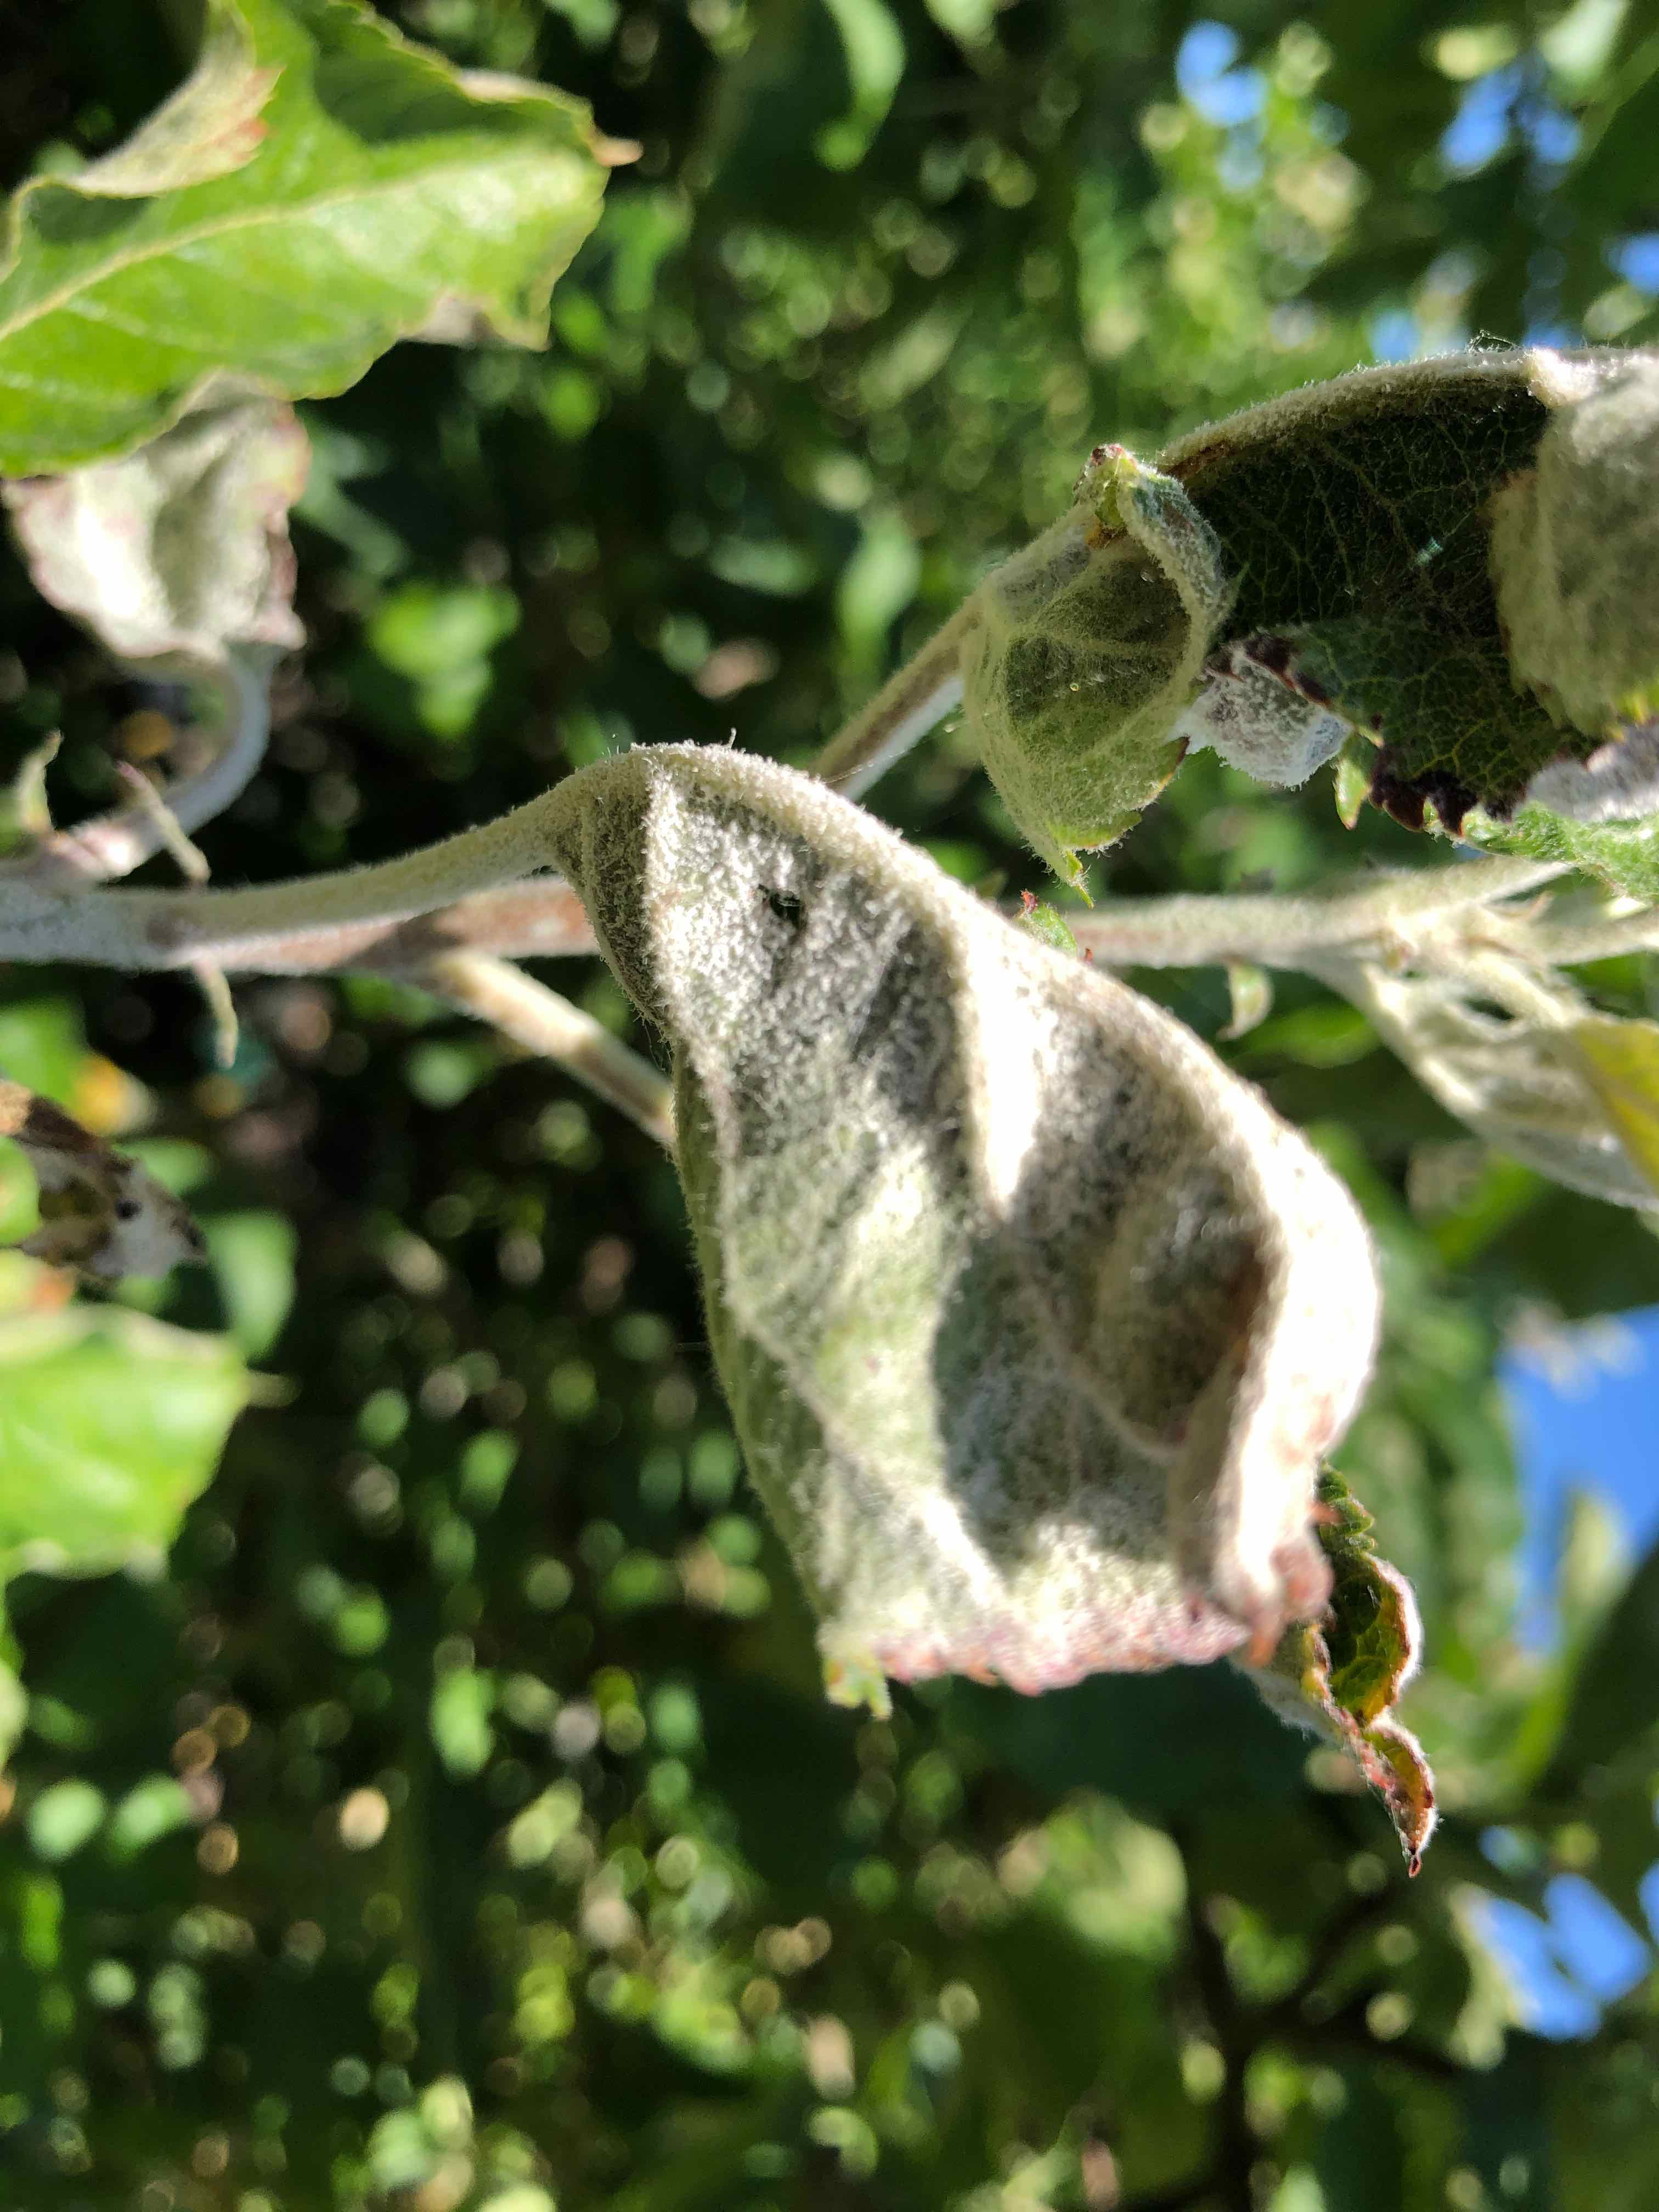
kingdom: Fungi
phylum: Ascomycota
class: Leotiomycetes
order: Helotiales
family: Erysiphaceae
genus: Podosphaera
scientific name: Podosphaera leucotricha
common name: æble-meldug
